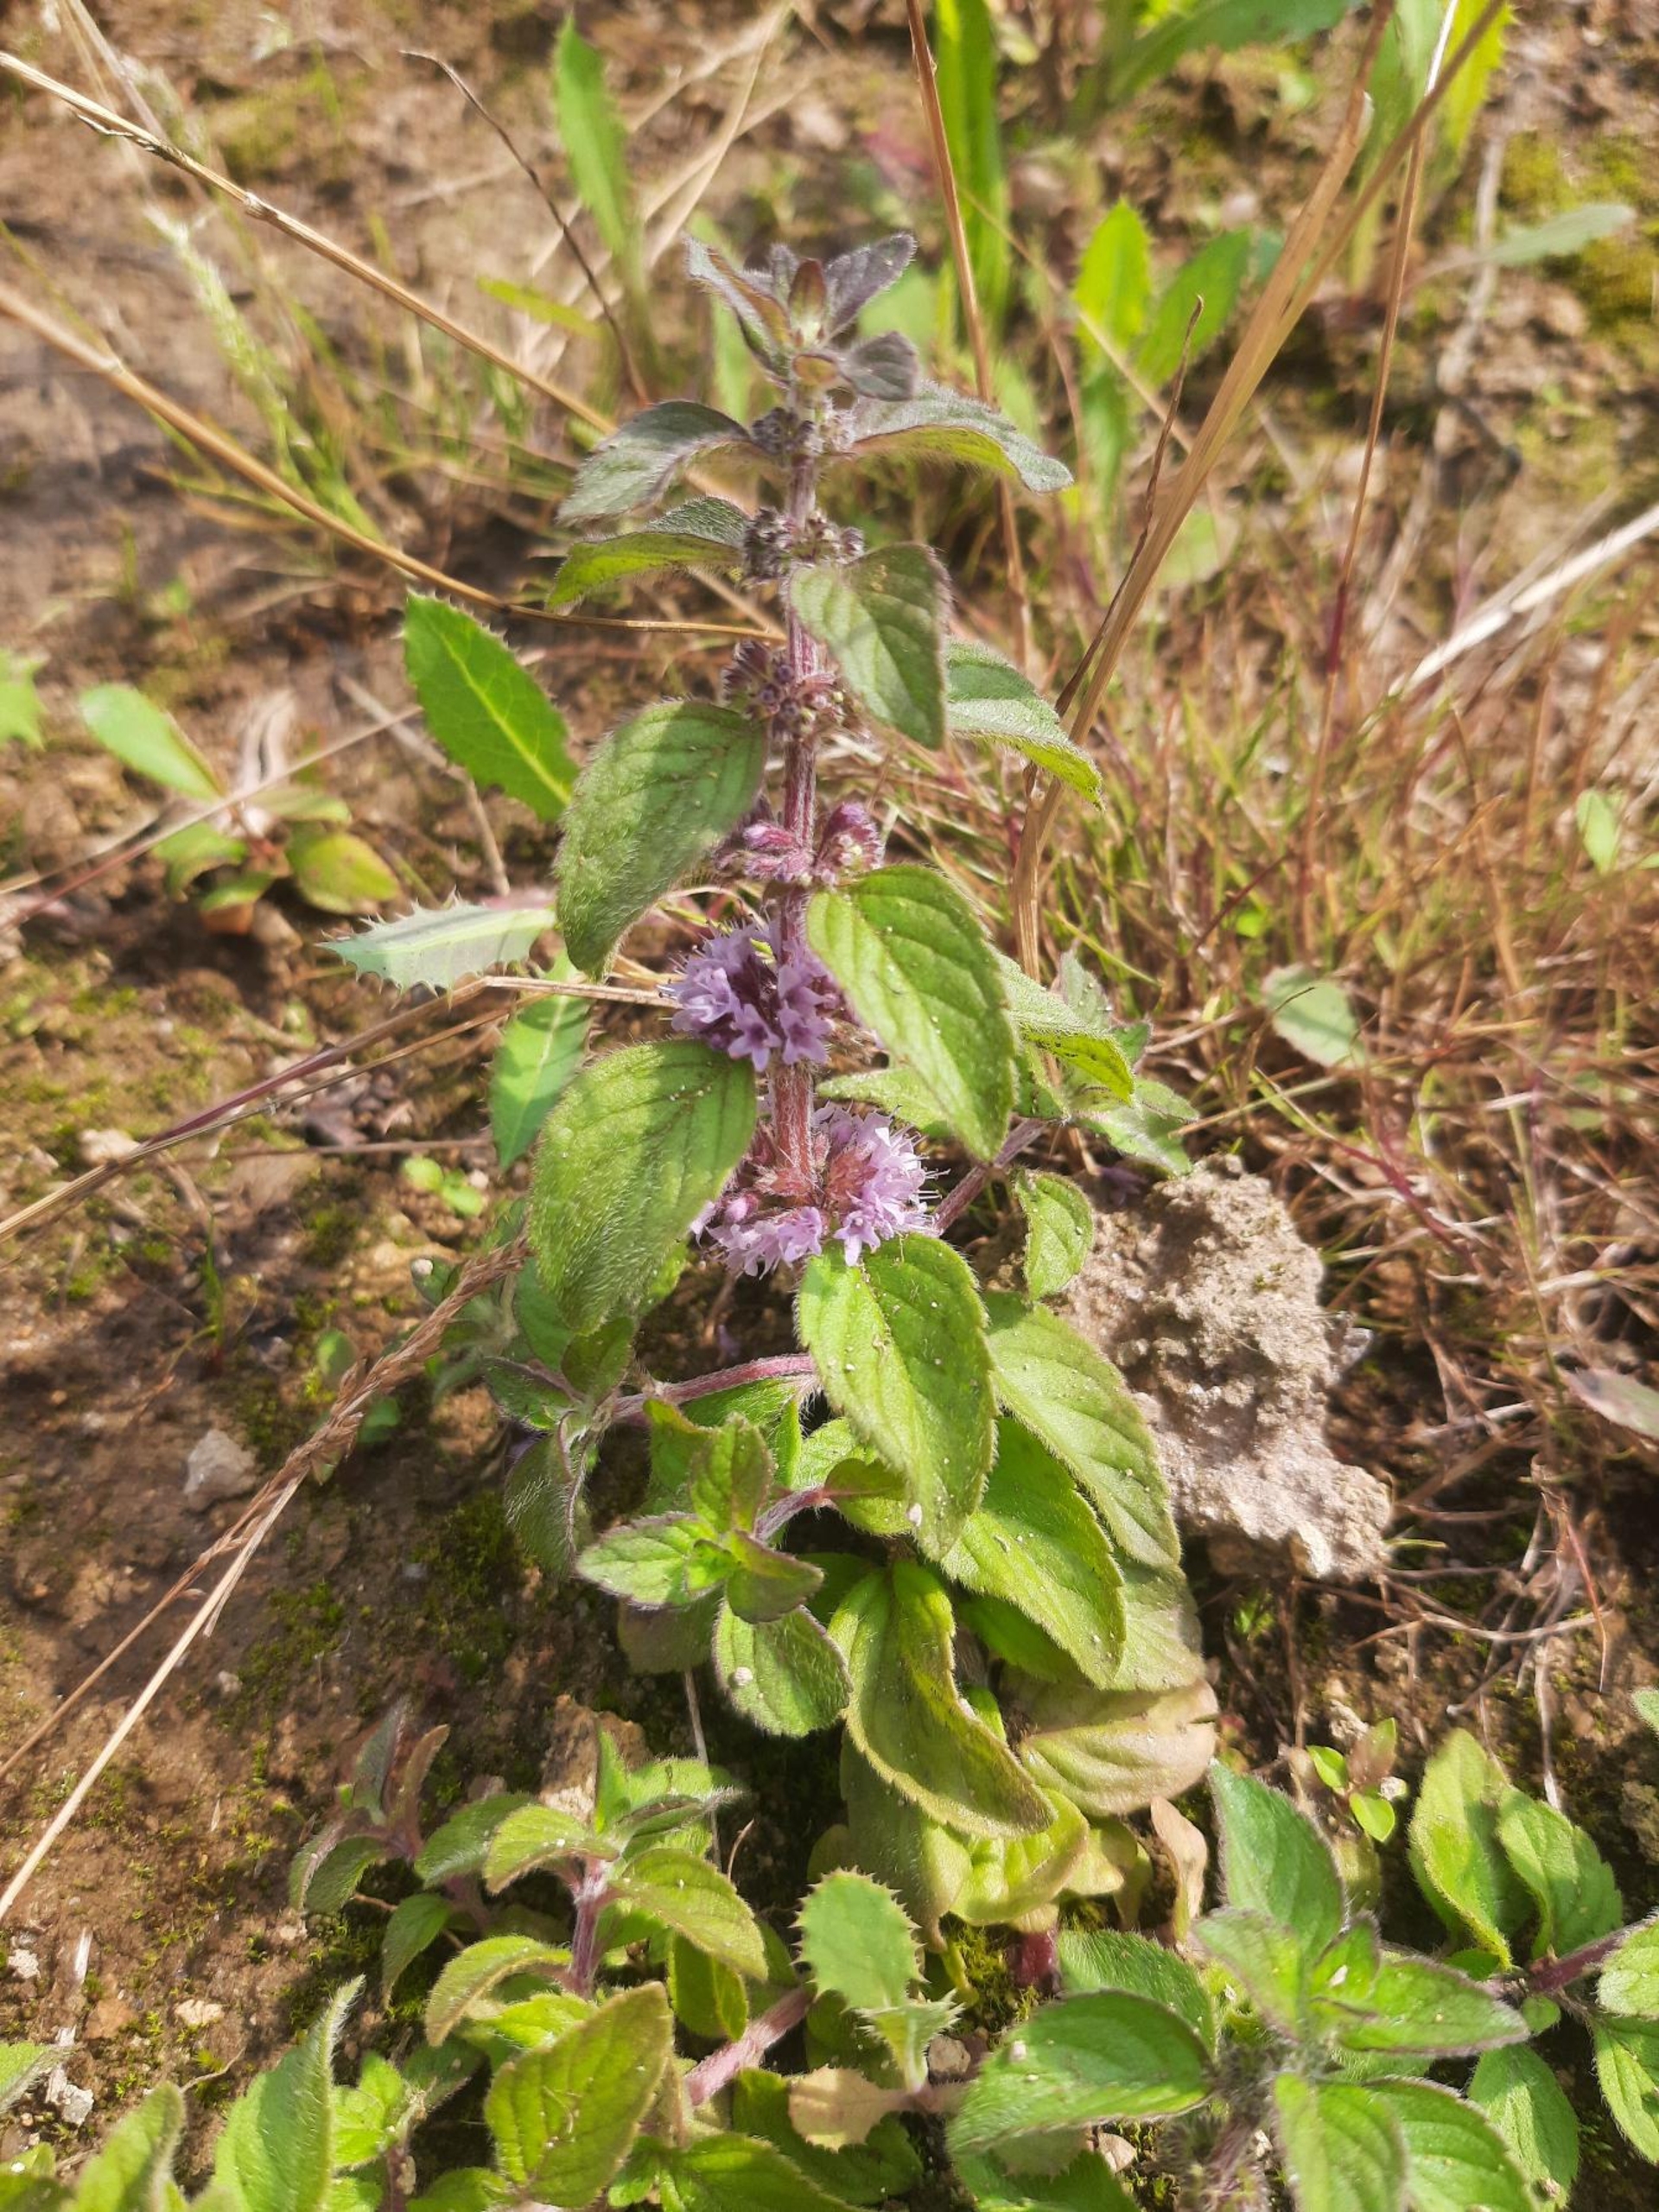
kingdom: Plantae
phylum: Tracheophyta
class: Magnoliopsida
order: Lamiales
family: Lamiaceae
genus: Mentha
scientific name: Mentha arvensis
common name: Ager-mynte
